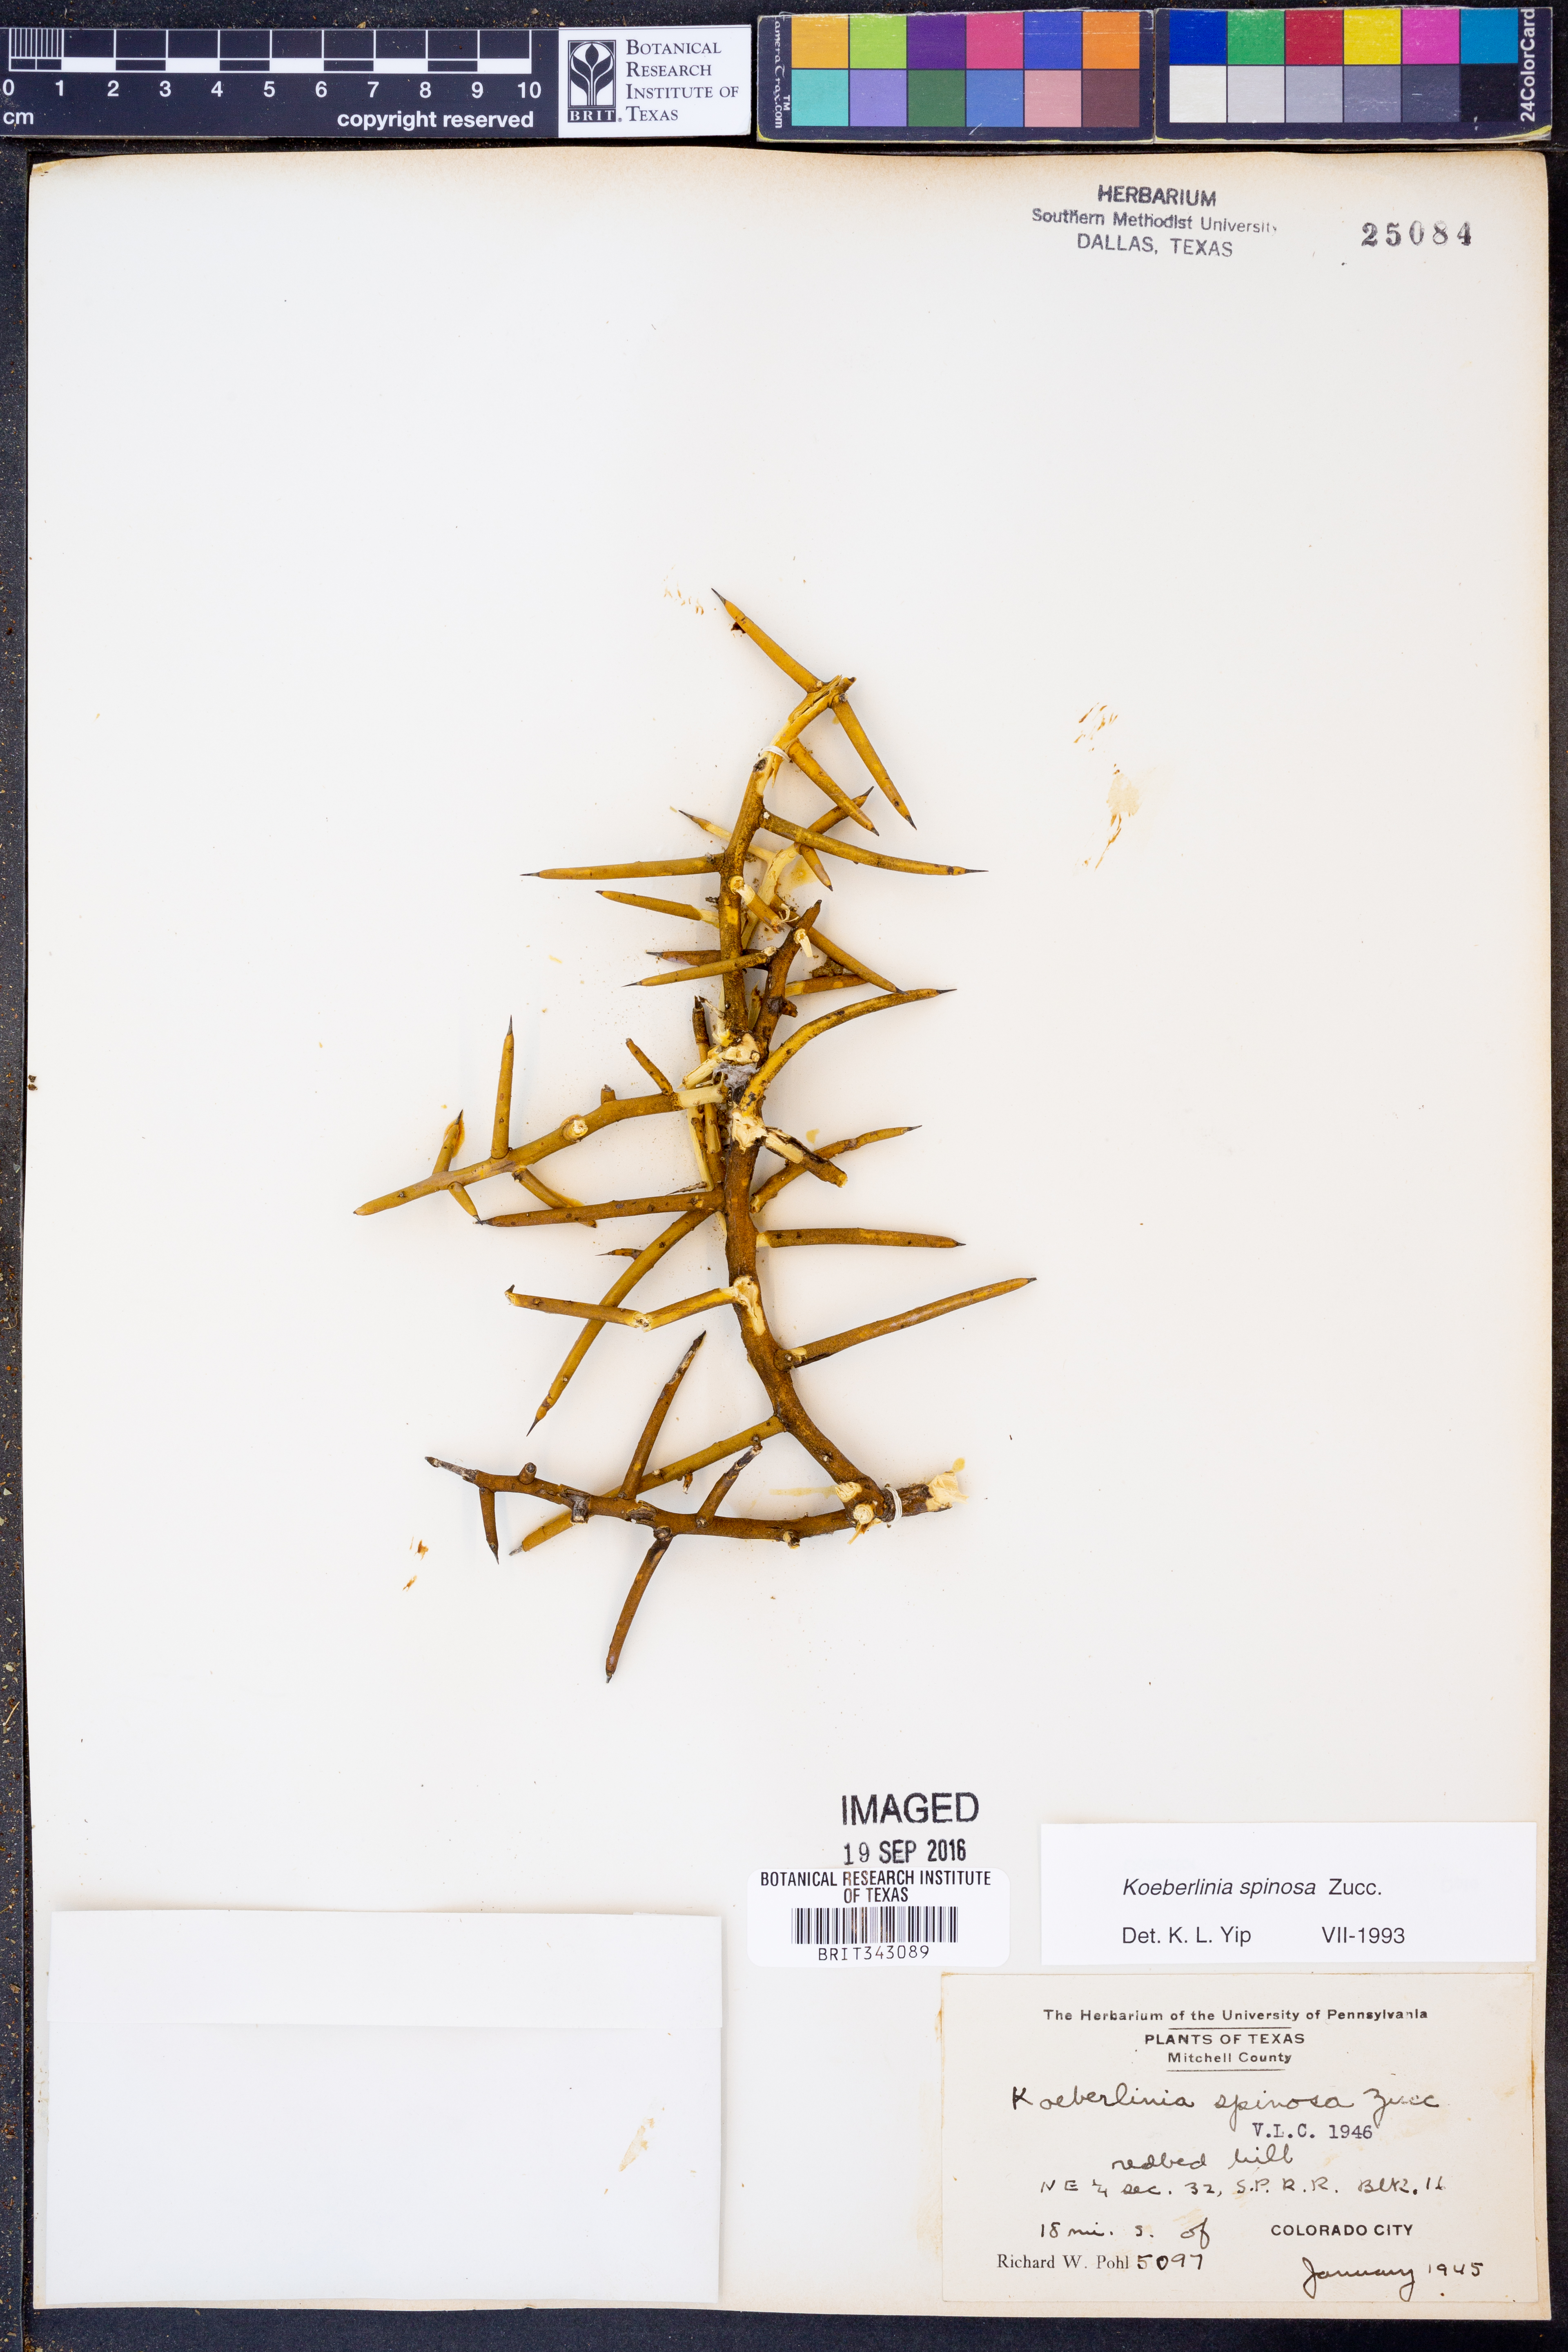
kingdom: Plantae
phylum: Tracheophyta
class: Magnoliopsida
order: Brassicales
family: Koeberliniaceae
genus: Koeberlinia
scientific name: Koeberlinia spinosa
